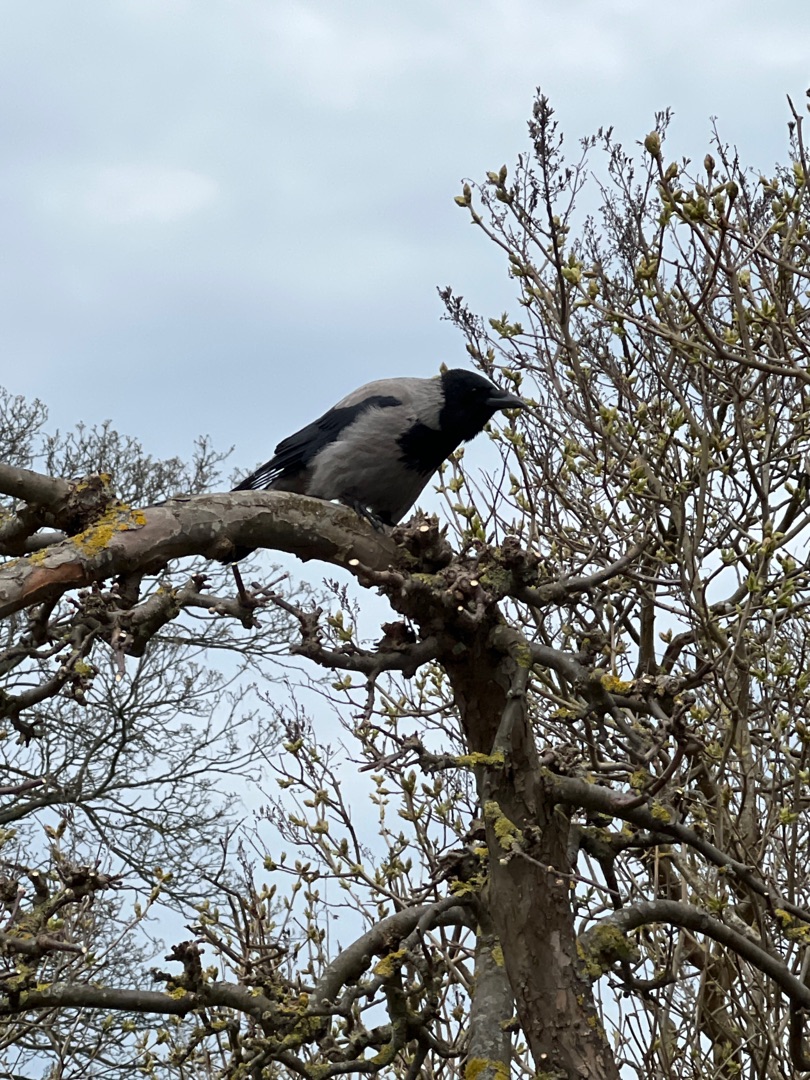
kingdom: Animalia
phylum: Chordata
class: Aves
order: Passeriformes
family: Corvidae
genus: Corvus
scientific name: Corvus cornix
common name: Gråkrage
